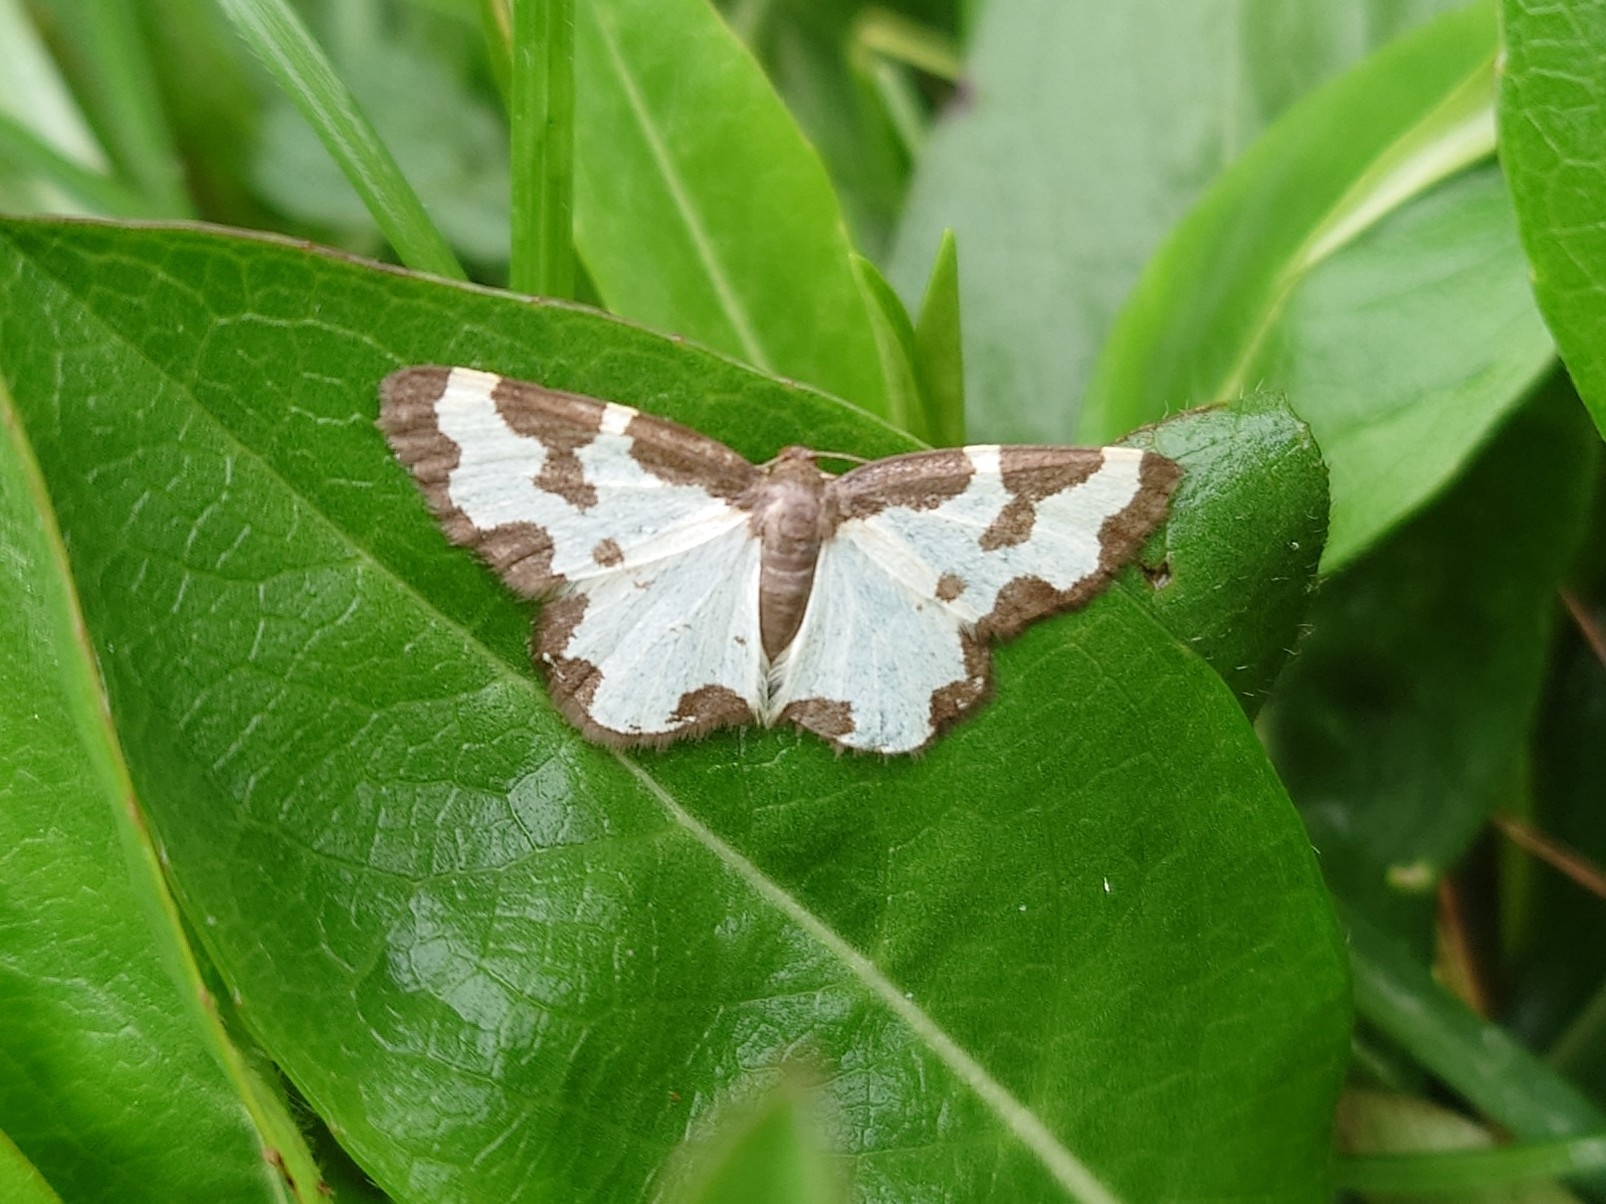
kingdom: Animalia
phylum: Arthropoda
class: Insecta
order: Lepidoptera
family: Geometridae
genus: Lomaspilis
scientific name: Lomaspilis marginata
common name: Sortrandet måler
